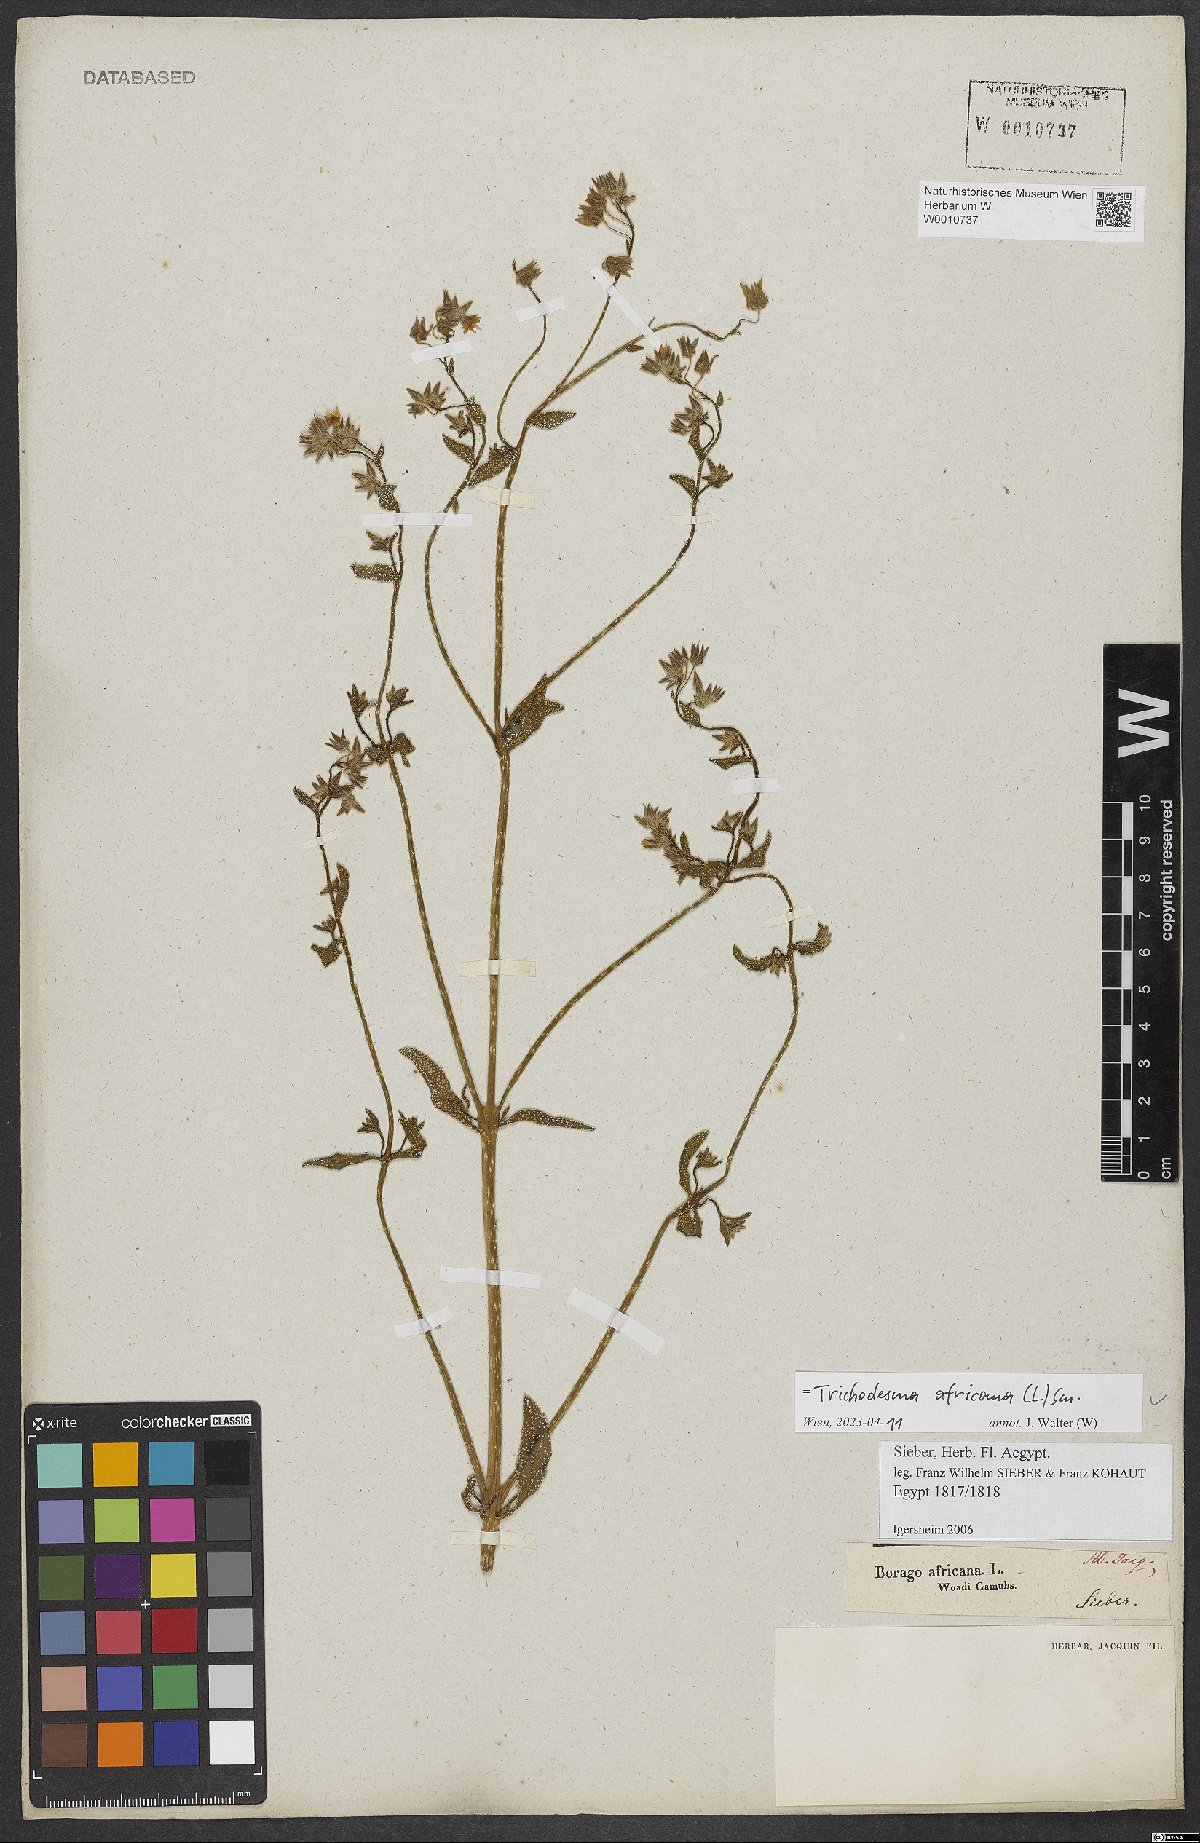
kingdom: Plantae
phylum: Tracheophyta
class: Magnoliopsida
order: Boraginales
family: Boraginaceae
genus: Trichodesma
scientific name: Trichodesma africanum
